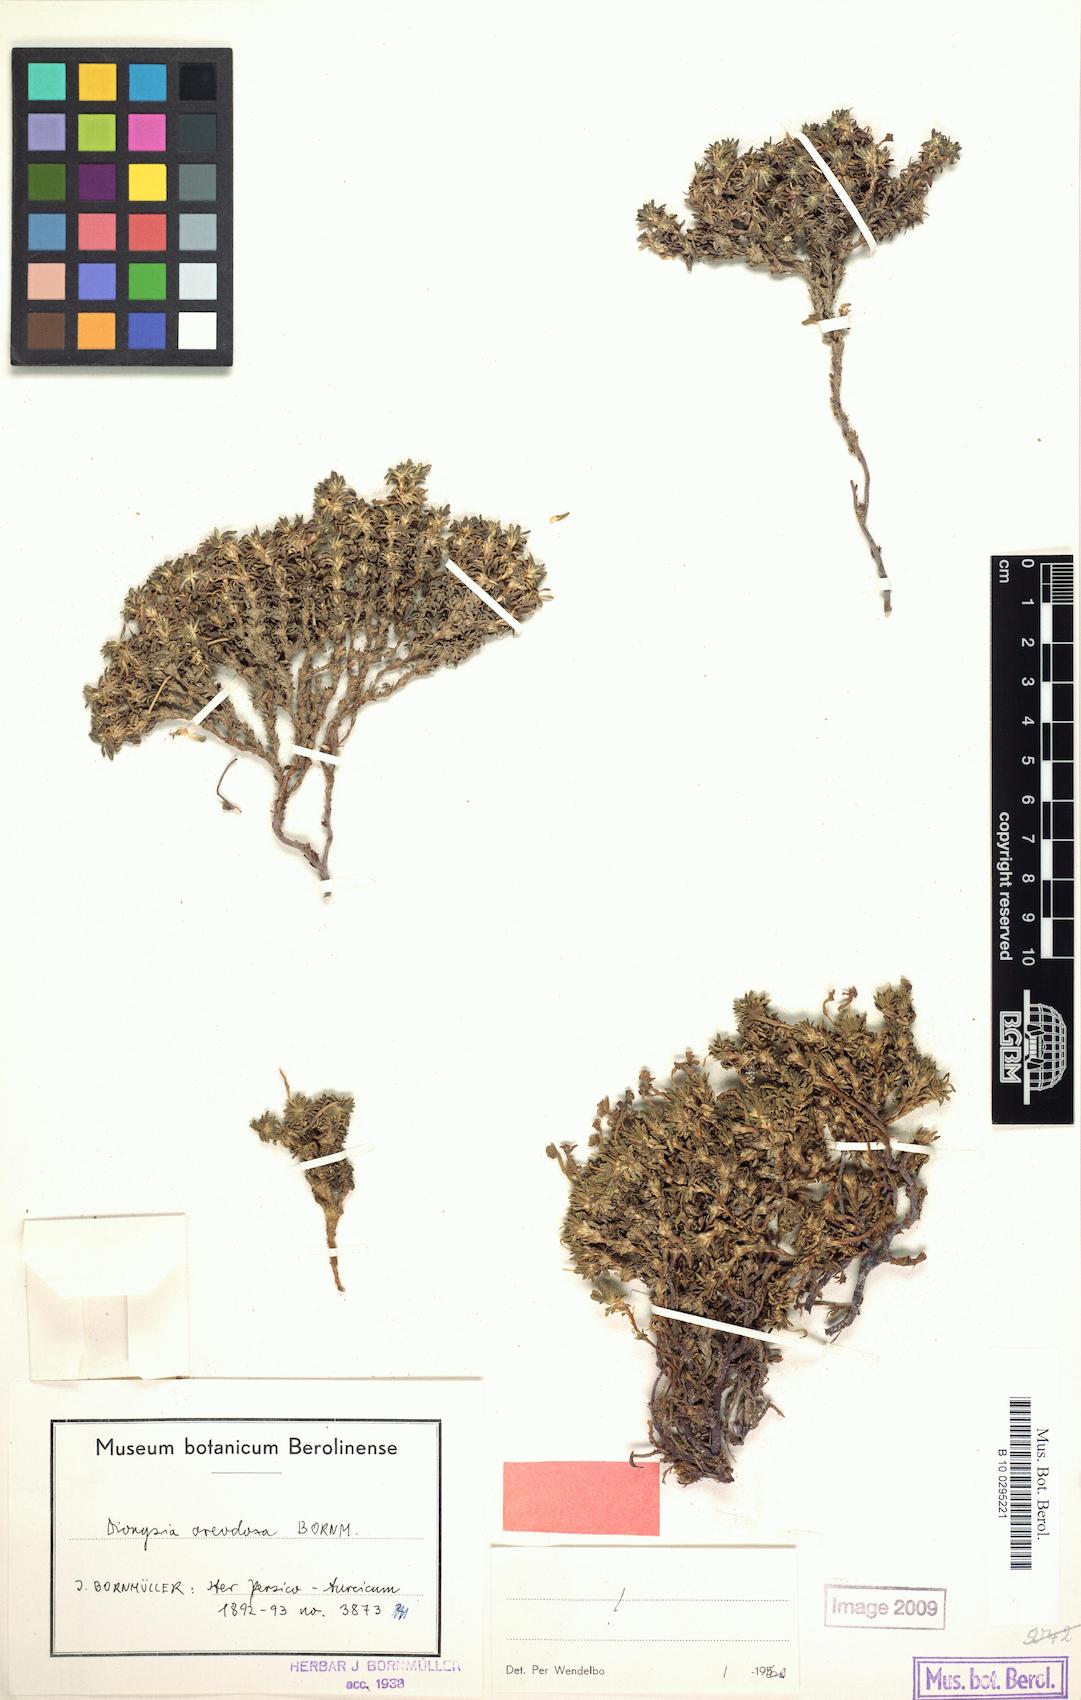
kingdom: Plantae
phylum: Tracheophyta
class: Magnoliopsida
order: Ericales
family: Primulaceae
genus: Dionysia
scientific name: Dionysia oreodoxa
